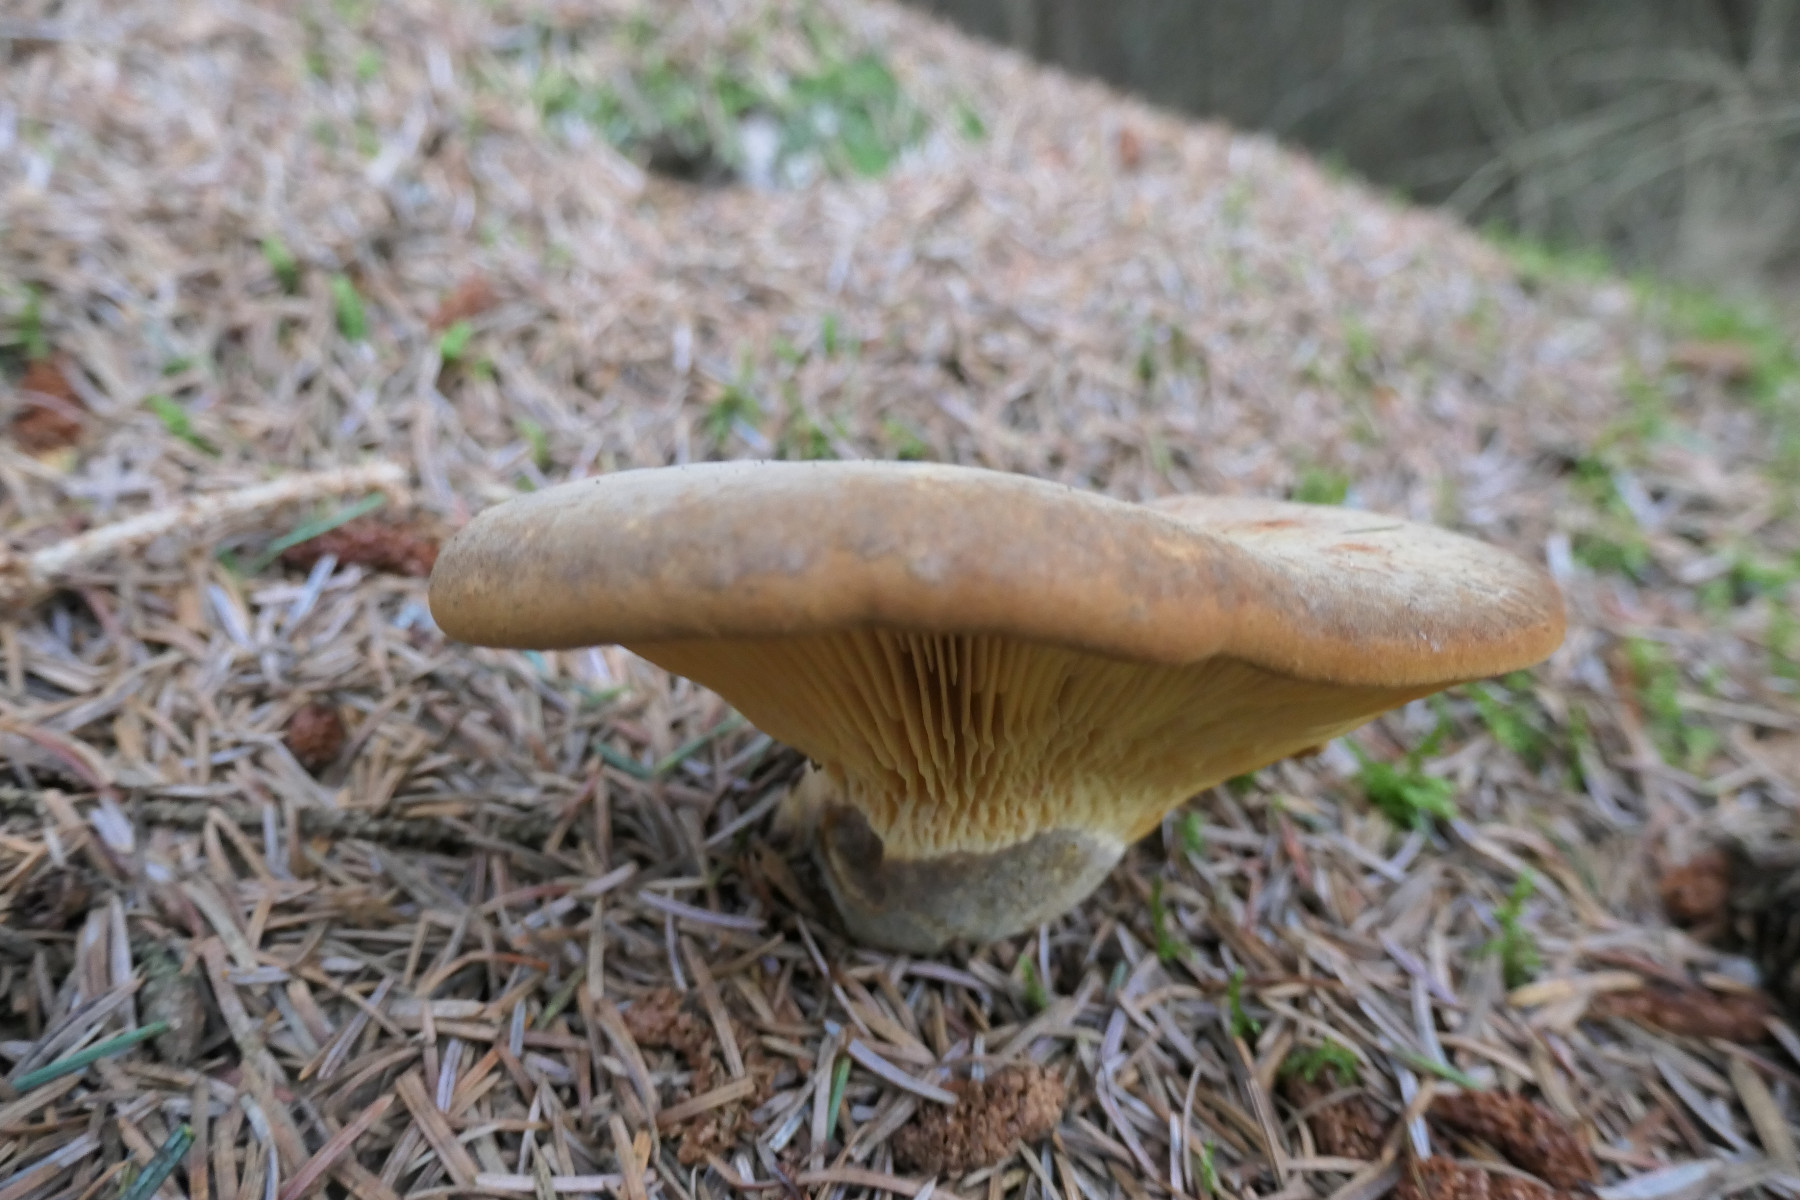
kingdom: Fungi
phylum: Basidiomycota
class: Agaricomycetes
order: Boletales
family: Tapinellaceae
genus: Tapinella
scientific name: Tapinella atrotomentosa
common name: sortfiltet viftesvamp
